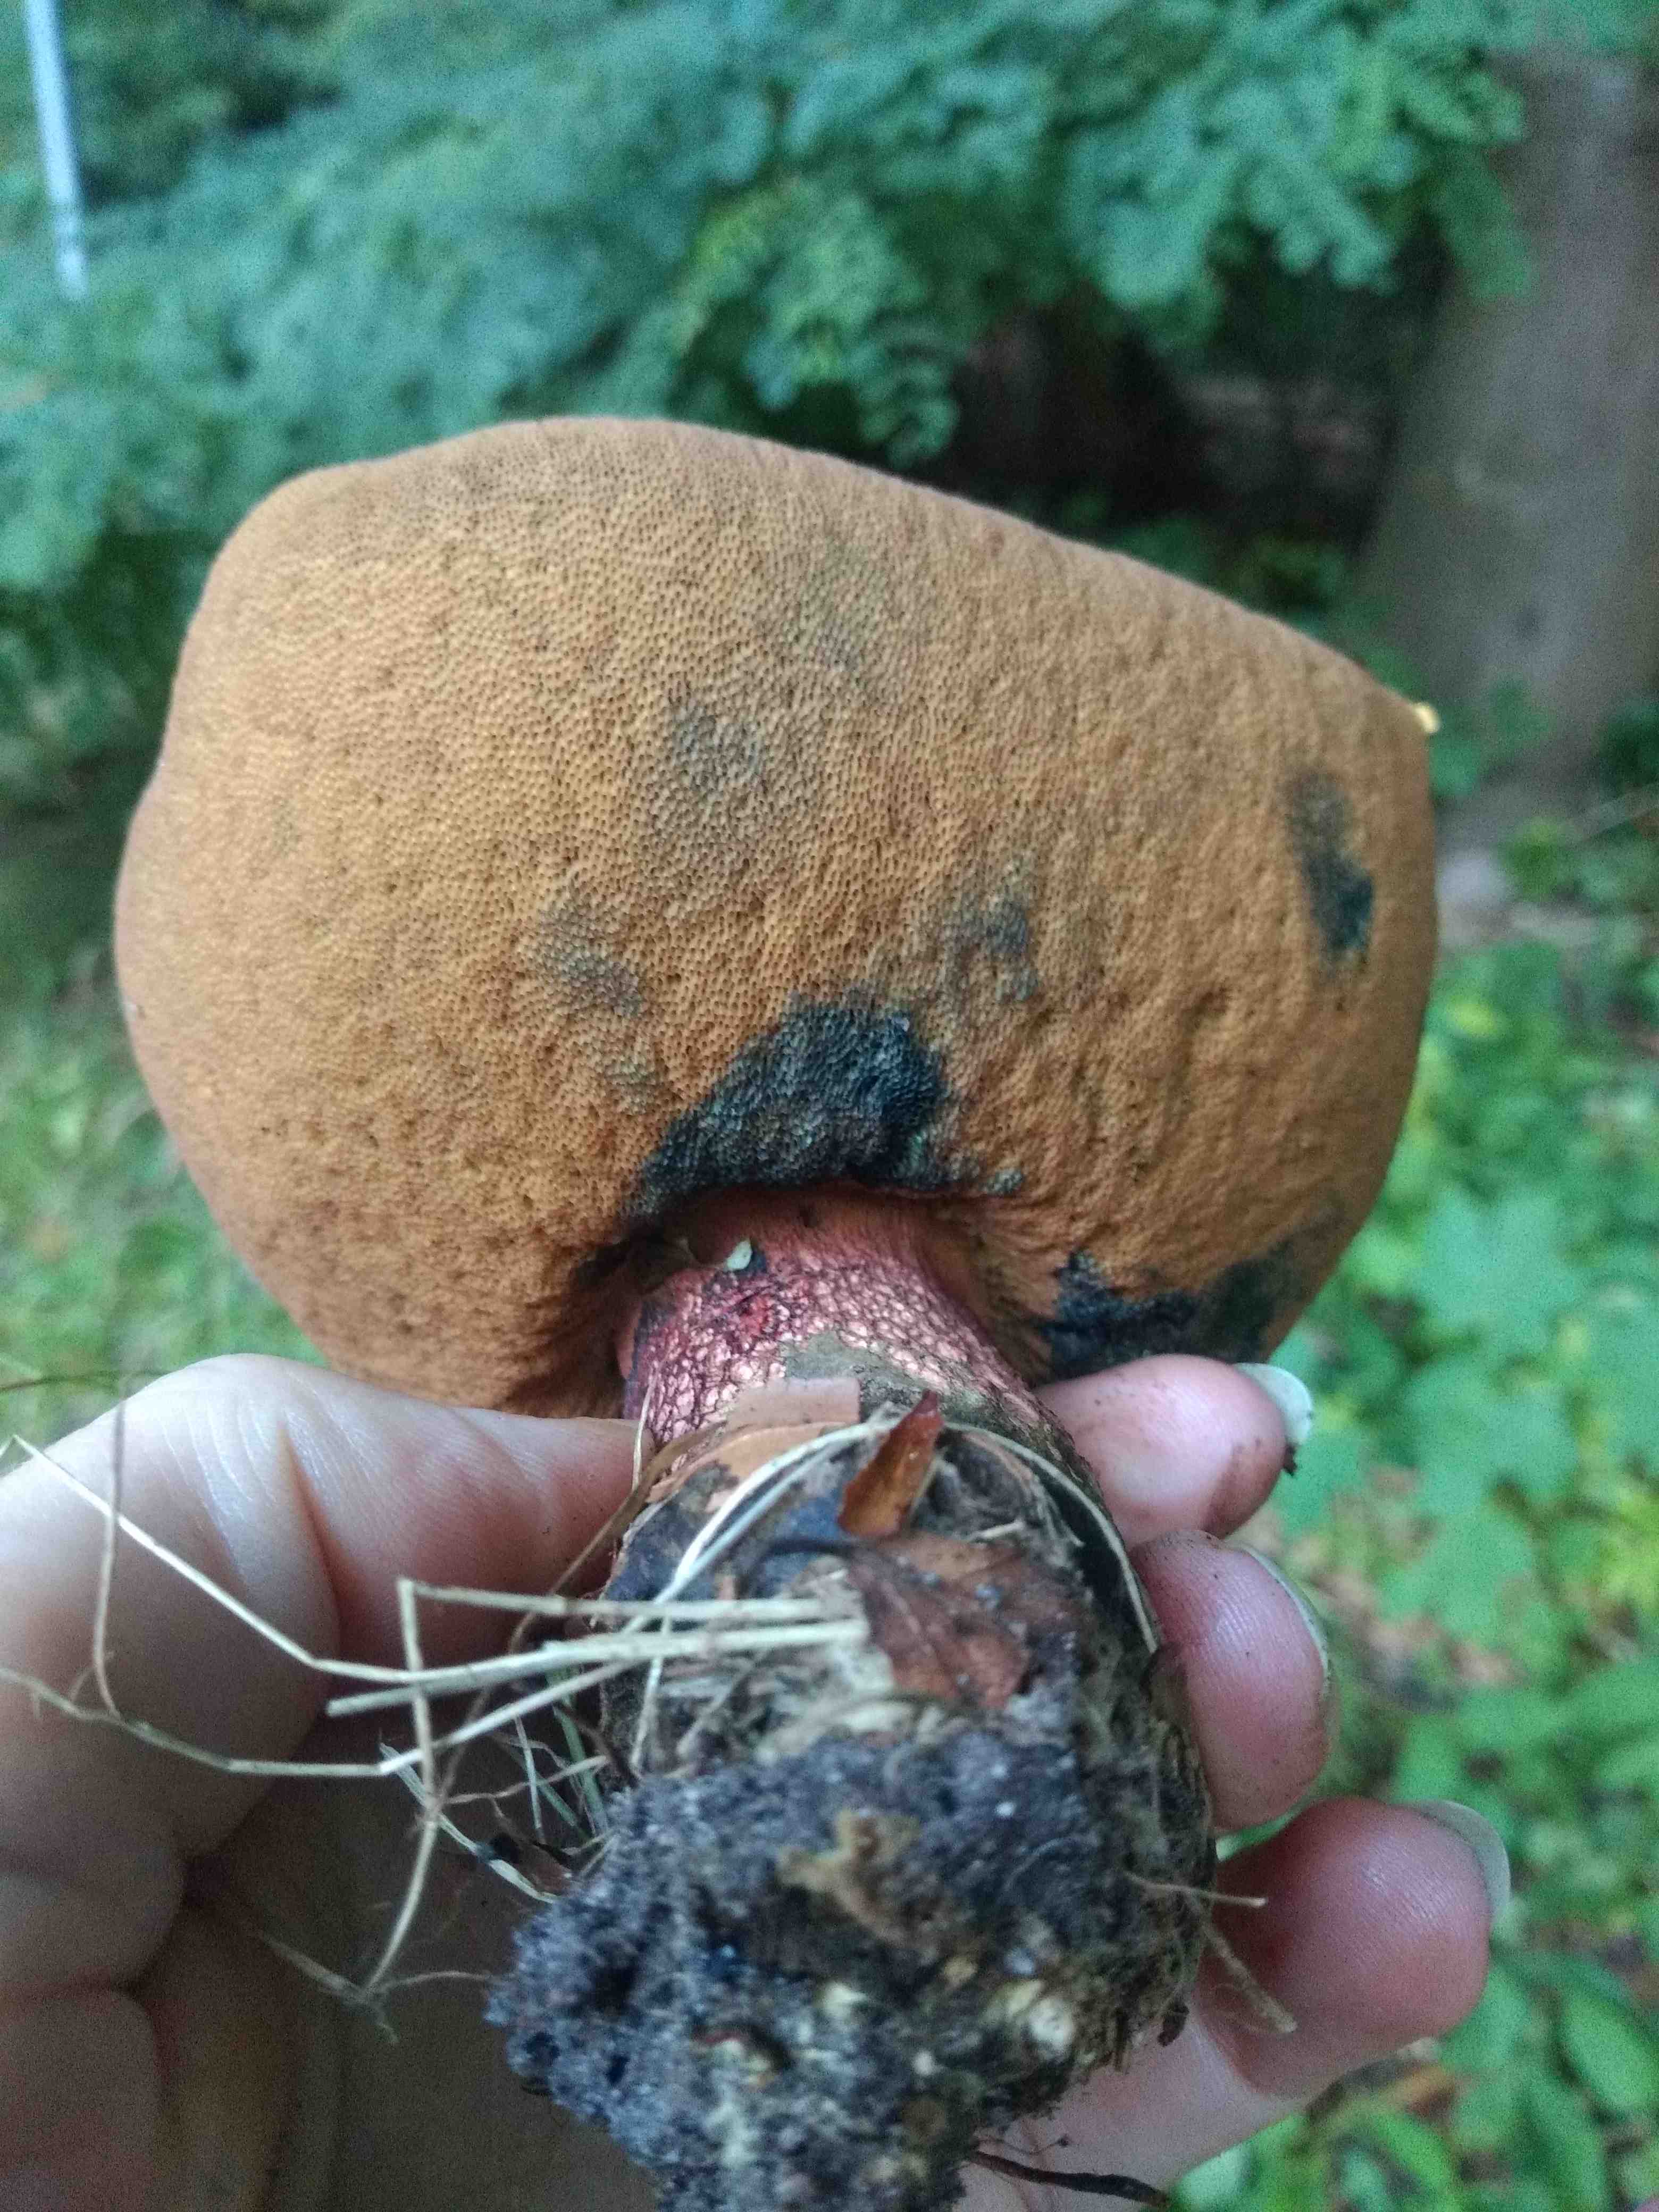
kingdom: Fungi
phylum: Basidiomycota
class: Agaricomycetes
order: Boletales
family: Boletaceae
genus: Caloboletus
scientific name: Caloboletus calopus
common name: skønfodet rørhat
